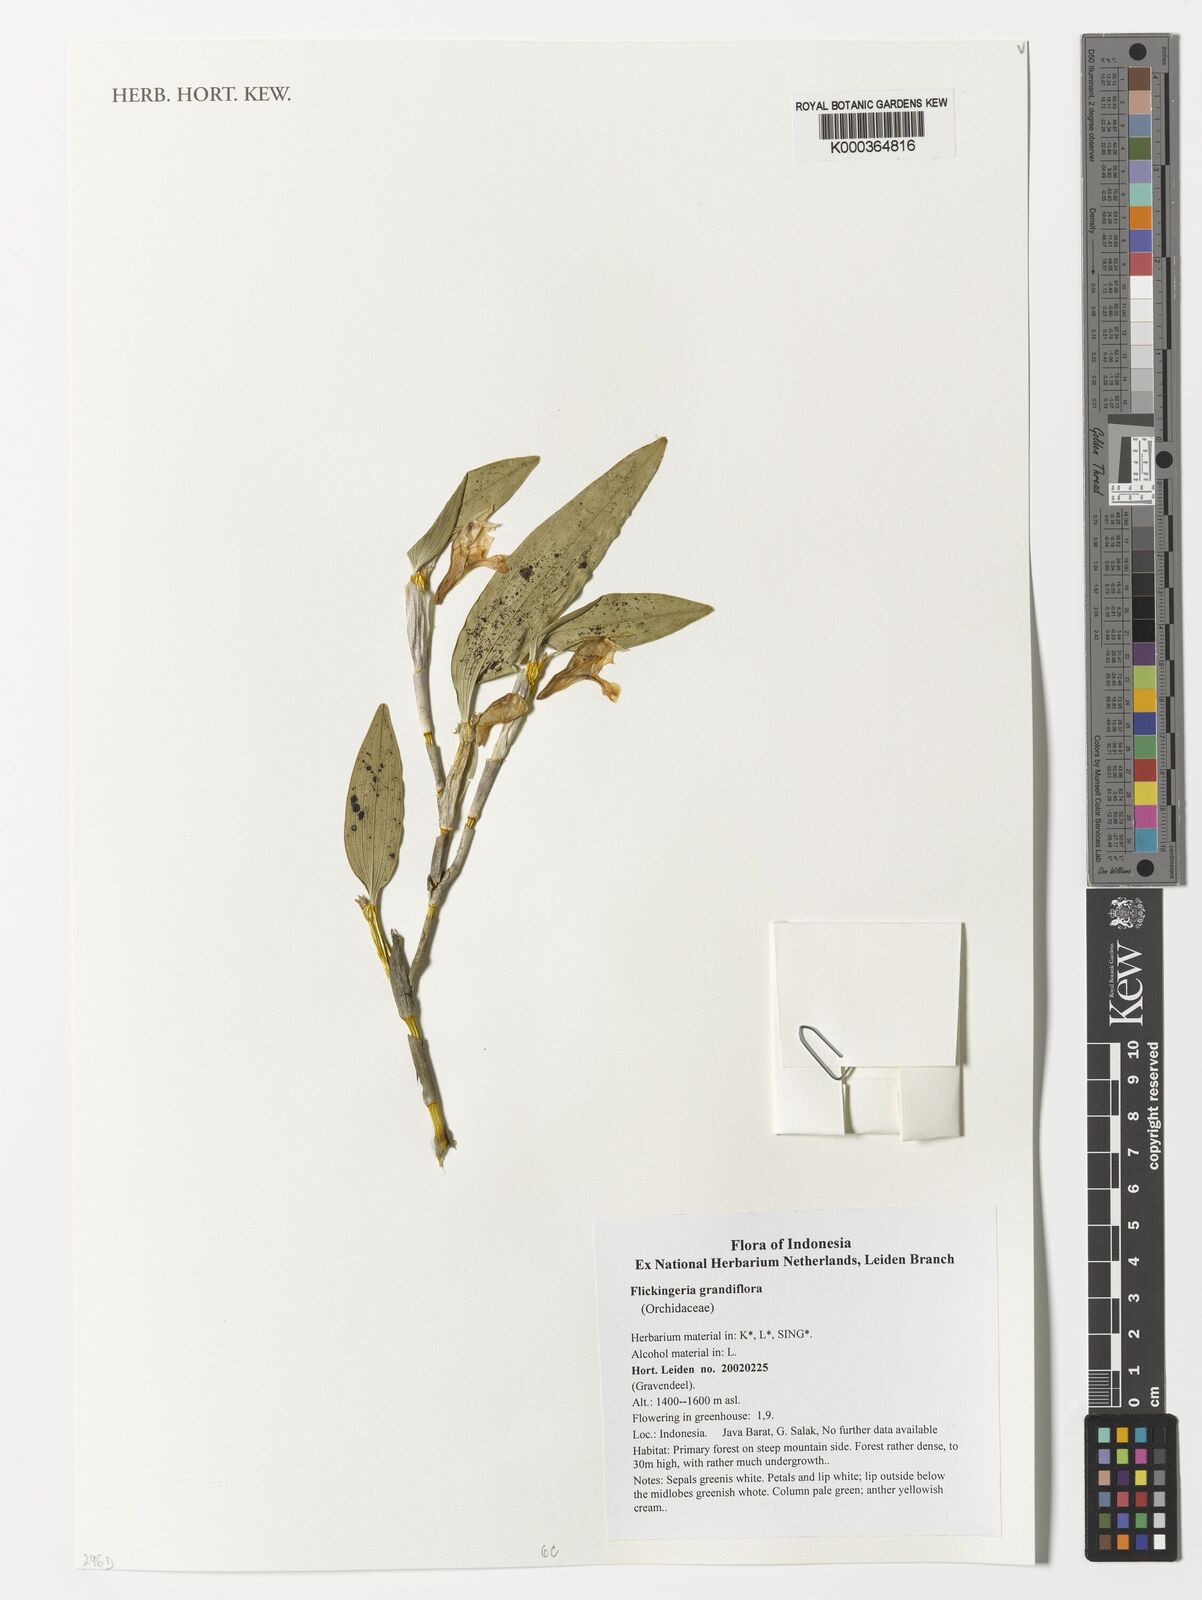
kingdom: Plantae
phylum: Tracheophyta
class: Liliopsida
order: Asparagales
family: Orchidaceae
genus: Dendrobium
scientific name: Dendrobium conspicuum
